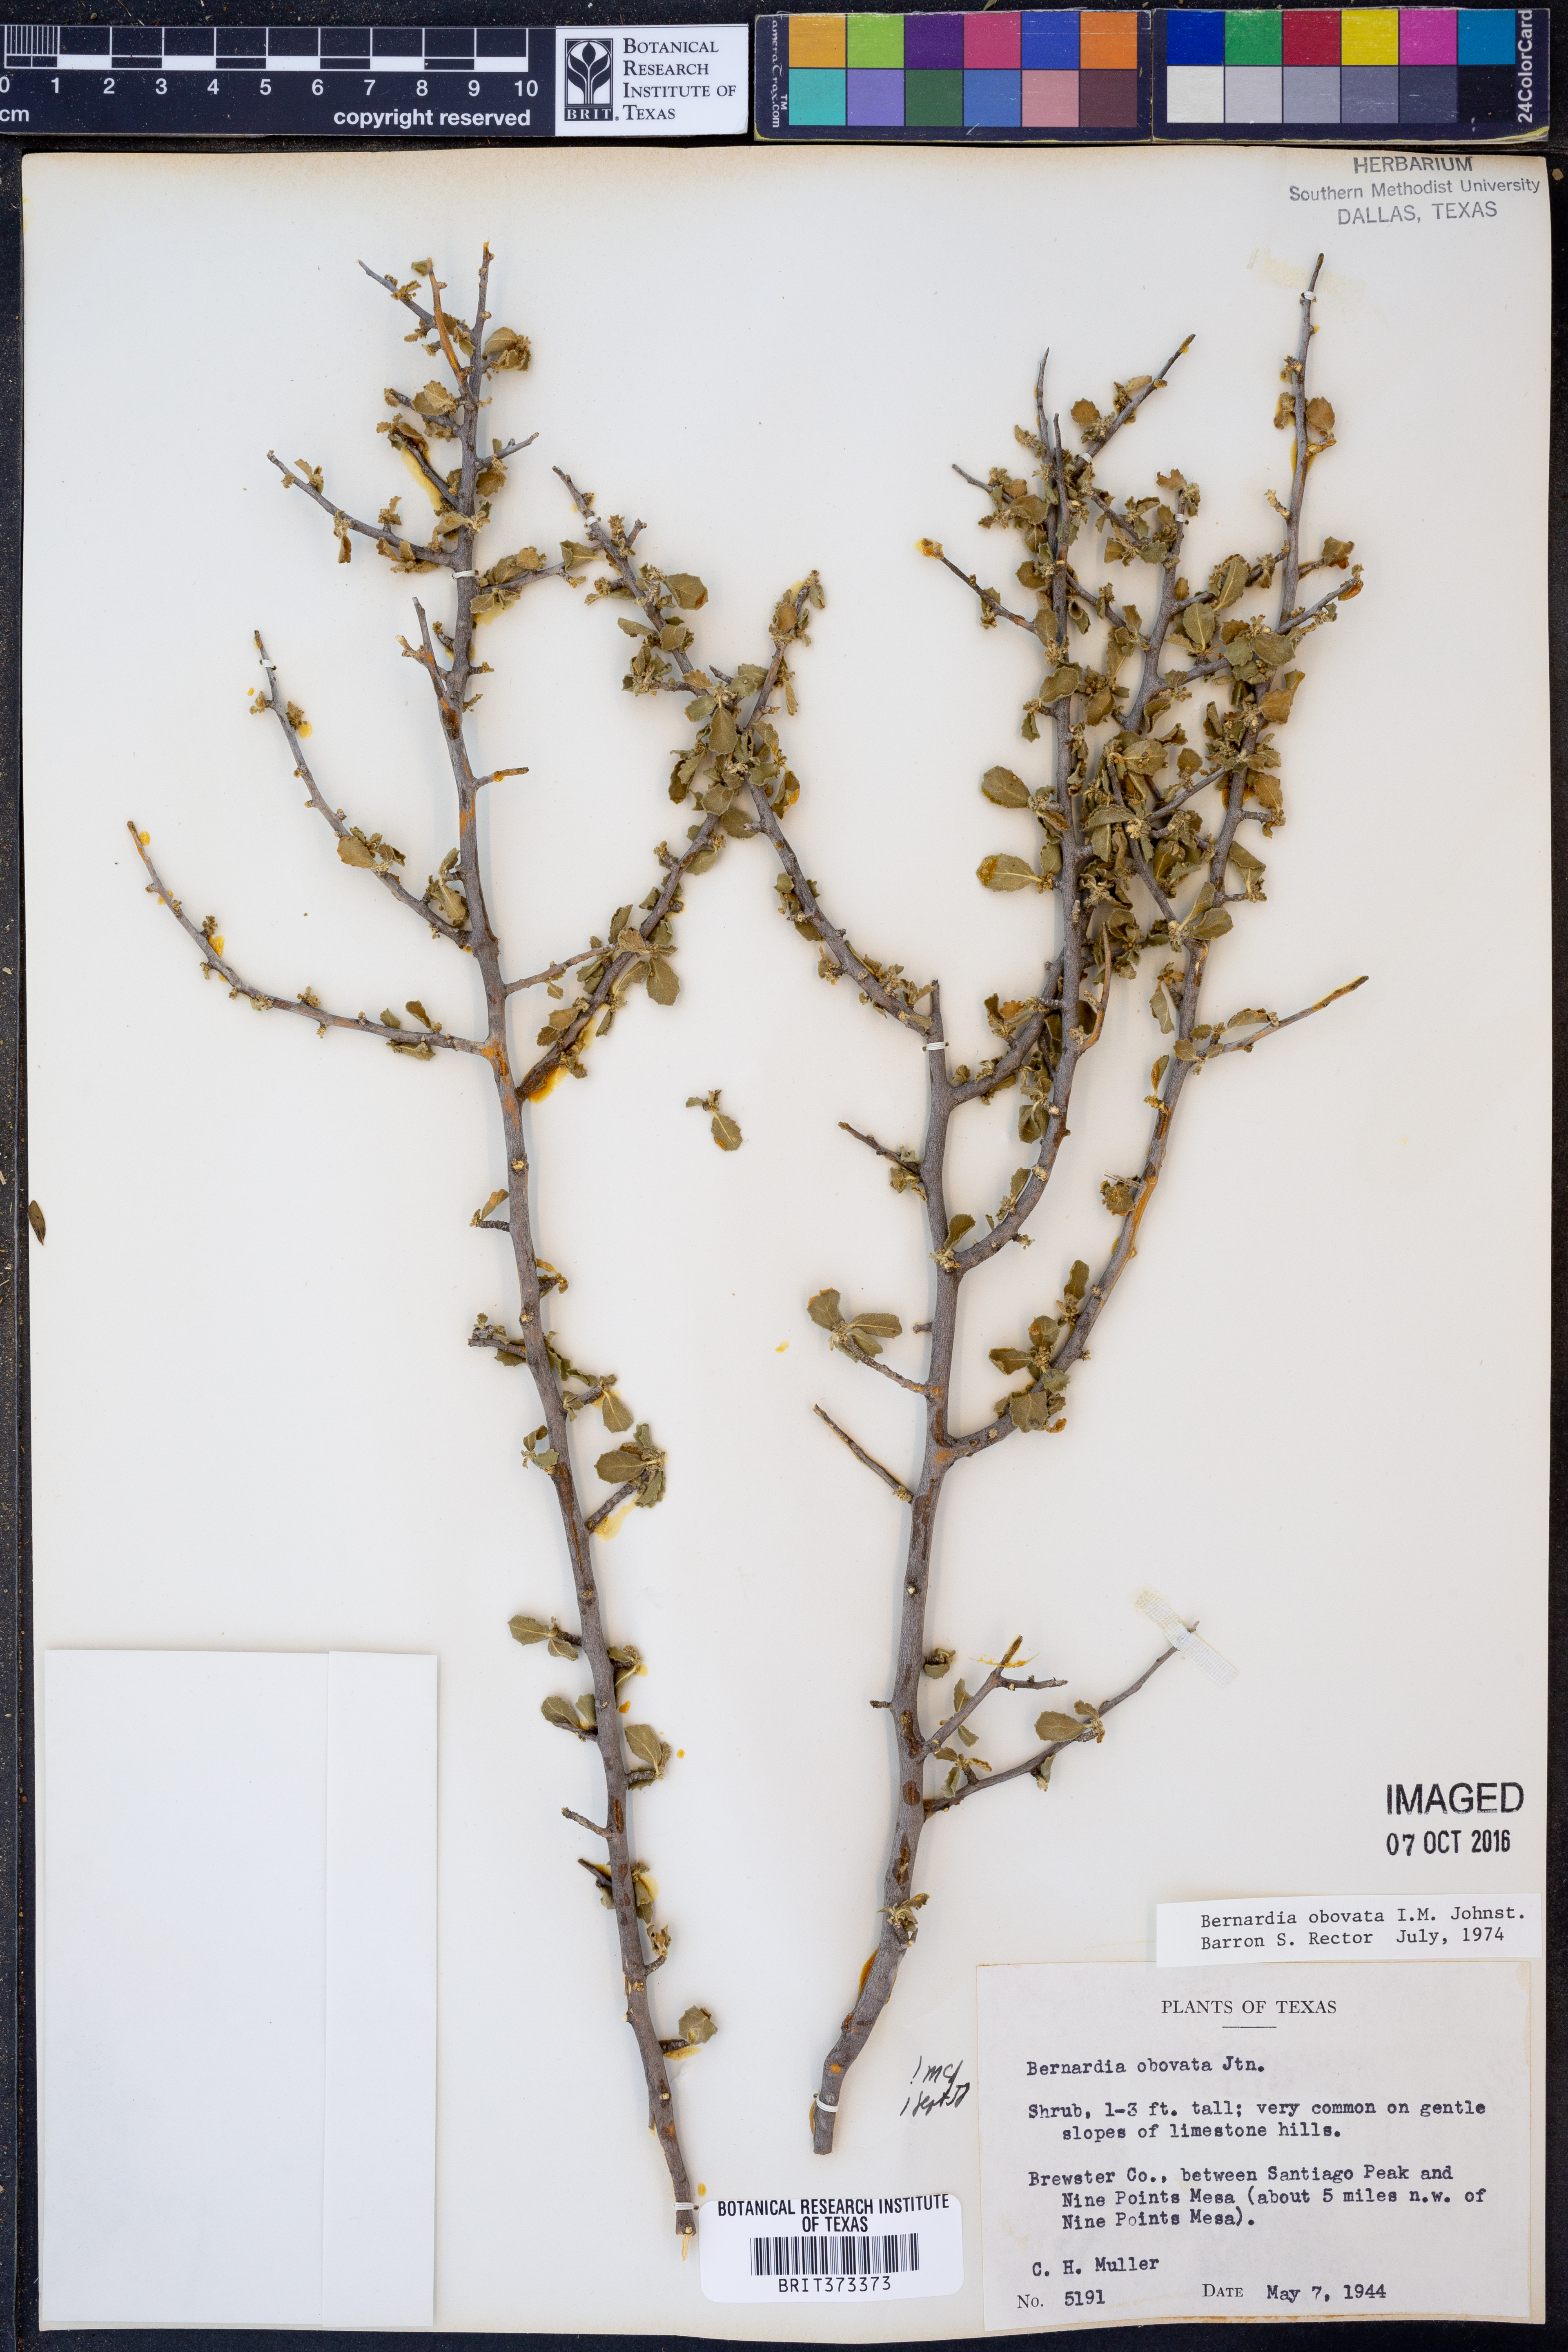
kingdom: Plantae
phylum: Tracheophyta
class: Magnoliopsida
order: Malpighiales
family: Euphorbiaceae
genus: Bernardia
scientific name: Bernardia obovata
